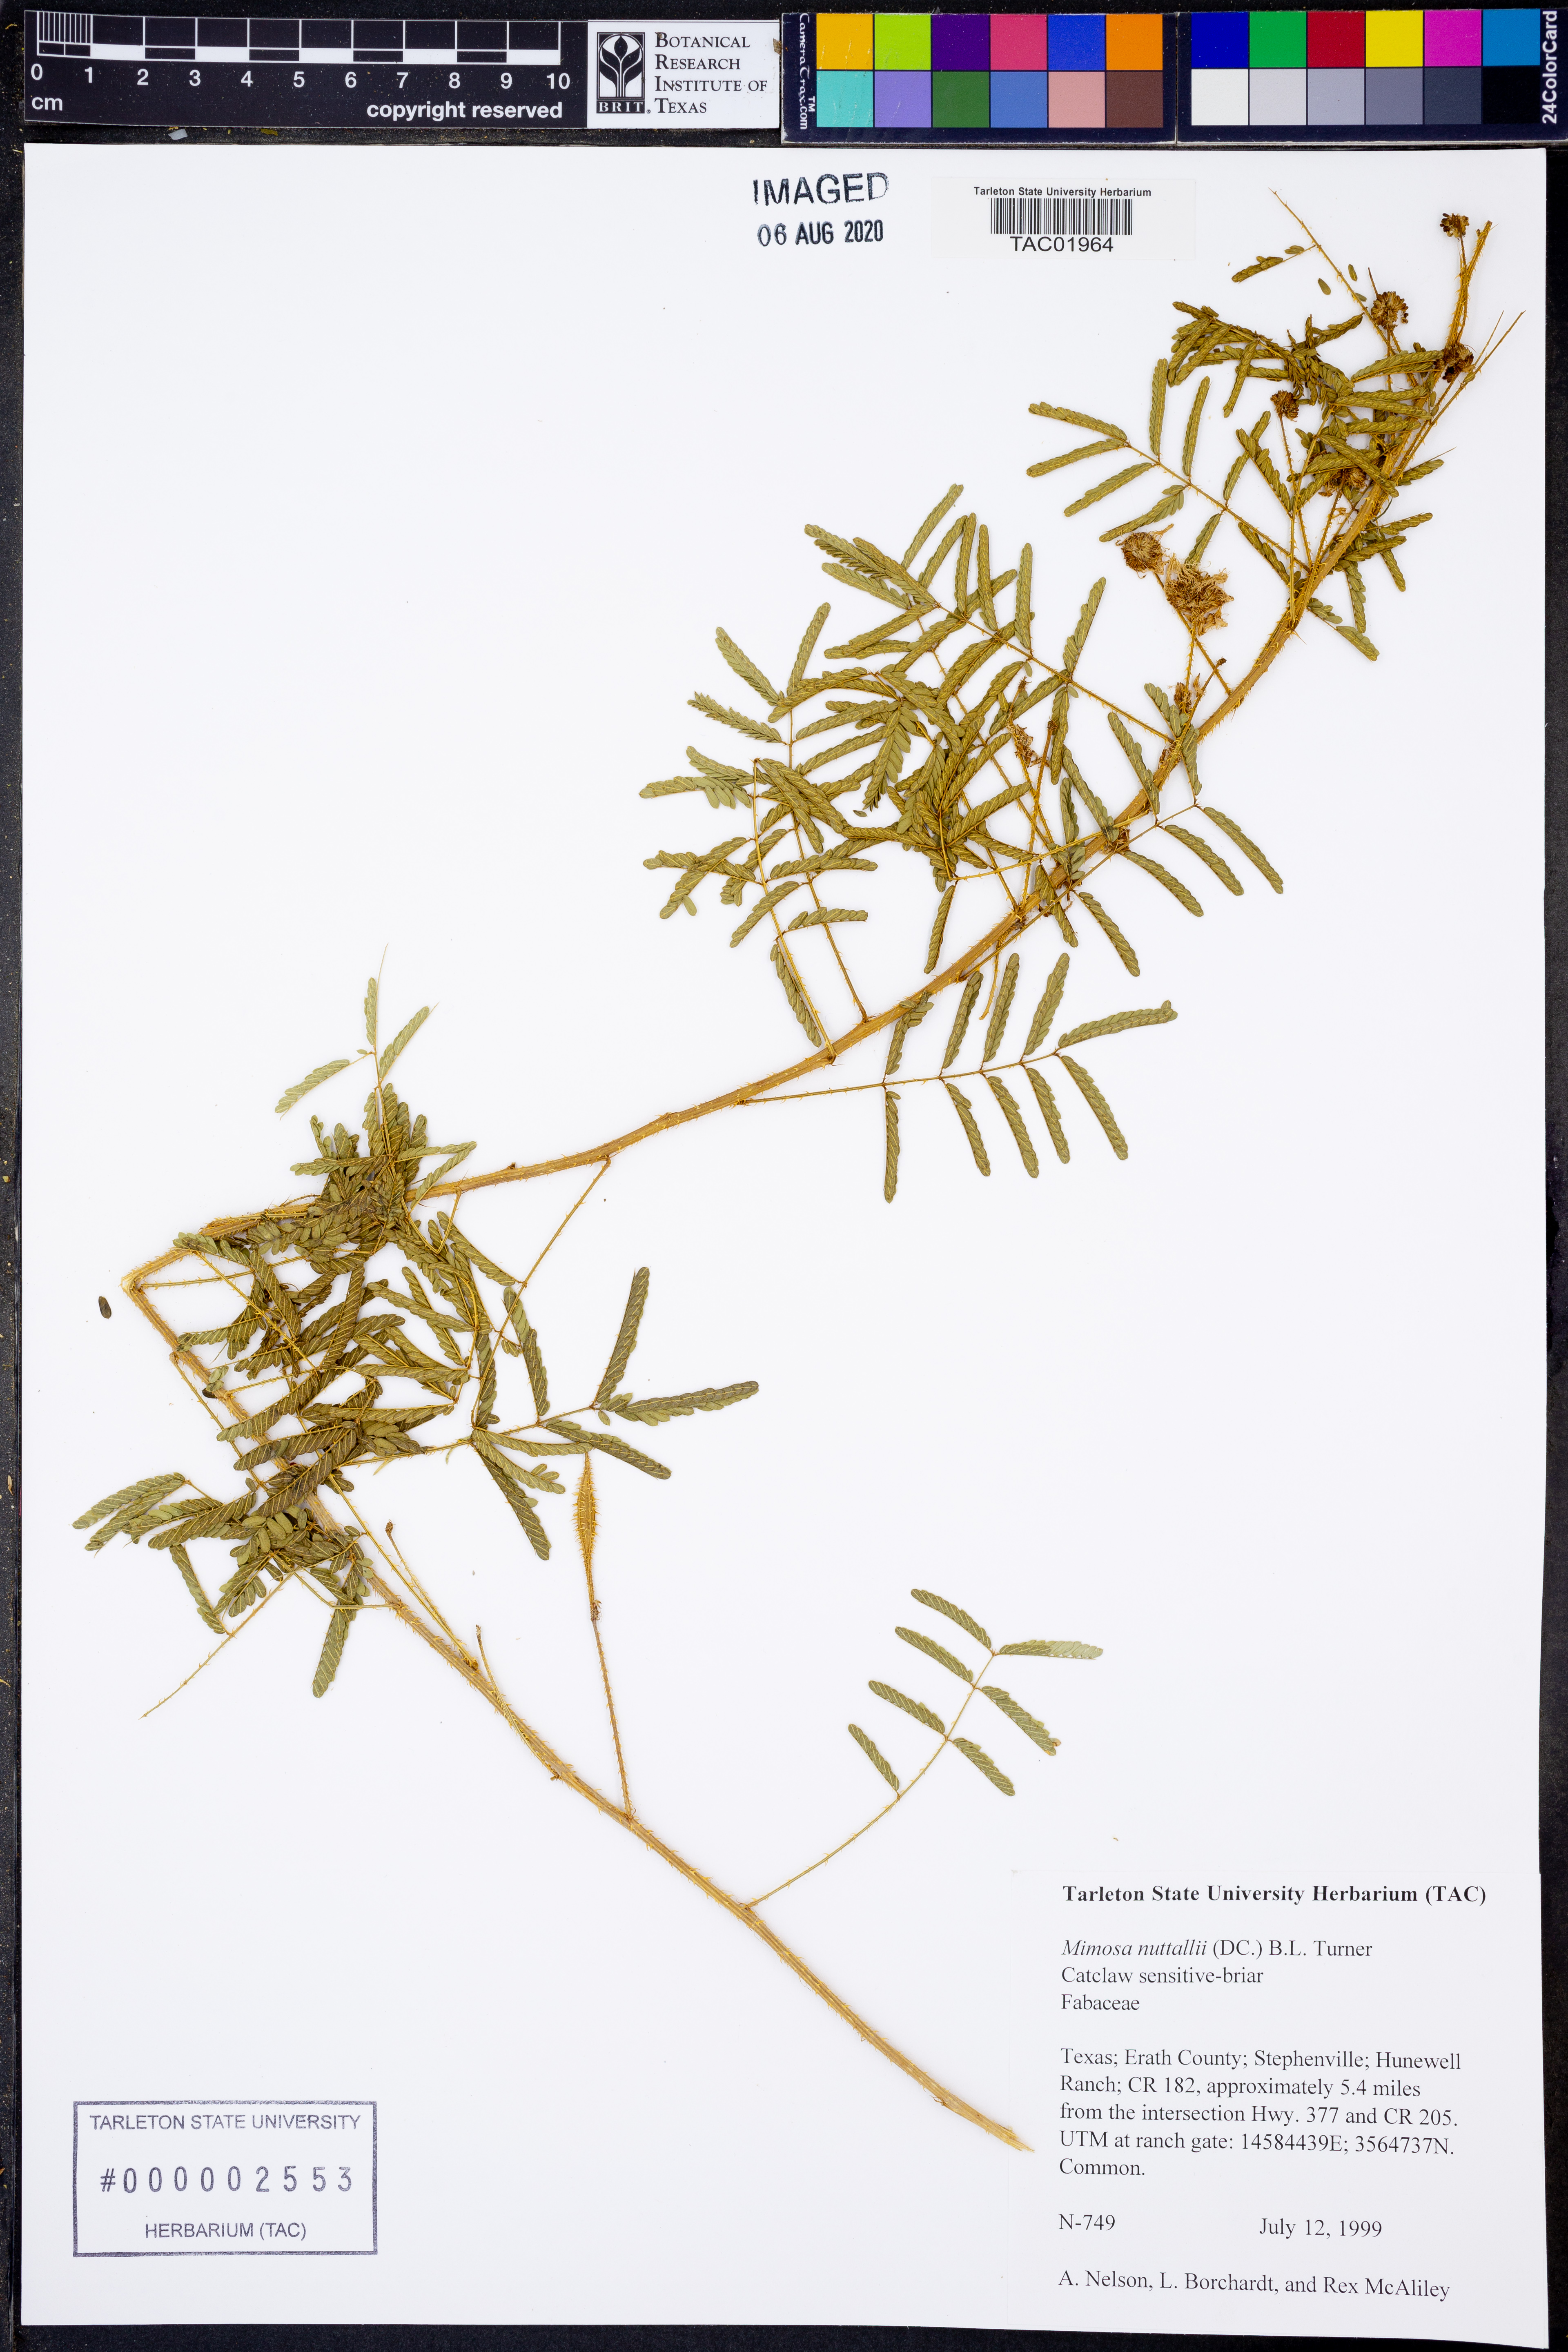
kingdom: Plantae
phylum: Tracheophyta
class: Magnoliopsida
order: Fabales
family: Fabaceae
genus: Mimosa
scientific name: Mimosa quadrivalvis
